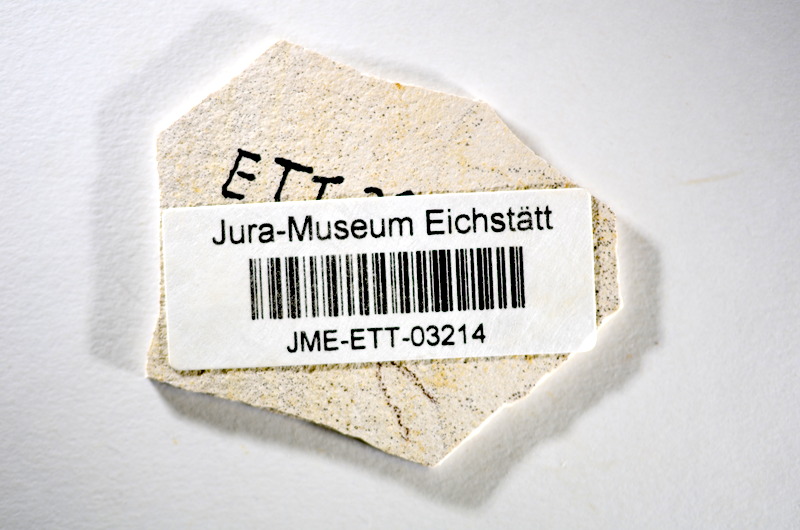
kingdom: Animalia
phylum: Chordata
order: Salmoniformes
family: Orthogonikleithridae
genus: Orthogonikleithrus
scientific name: Orthogonikleithrus hoelli
